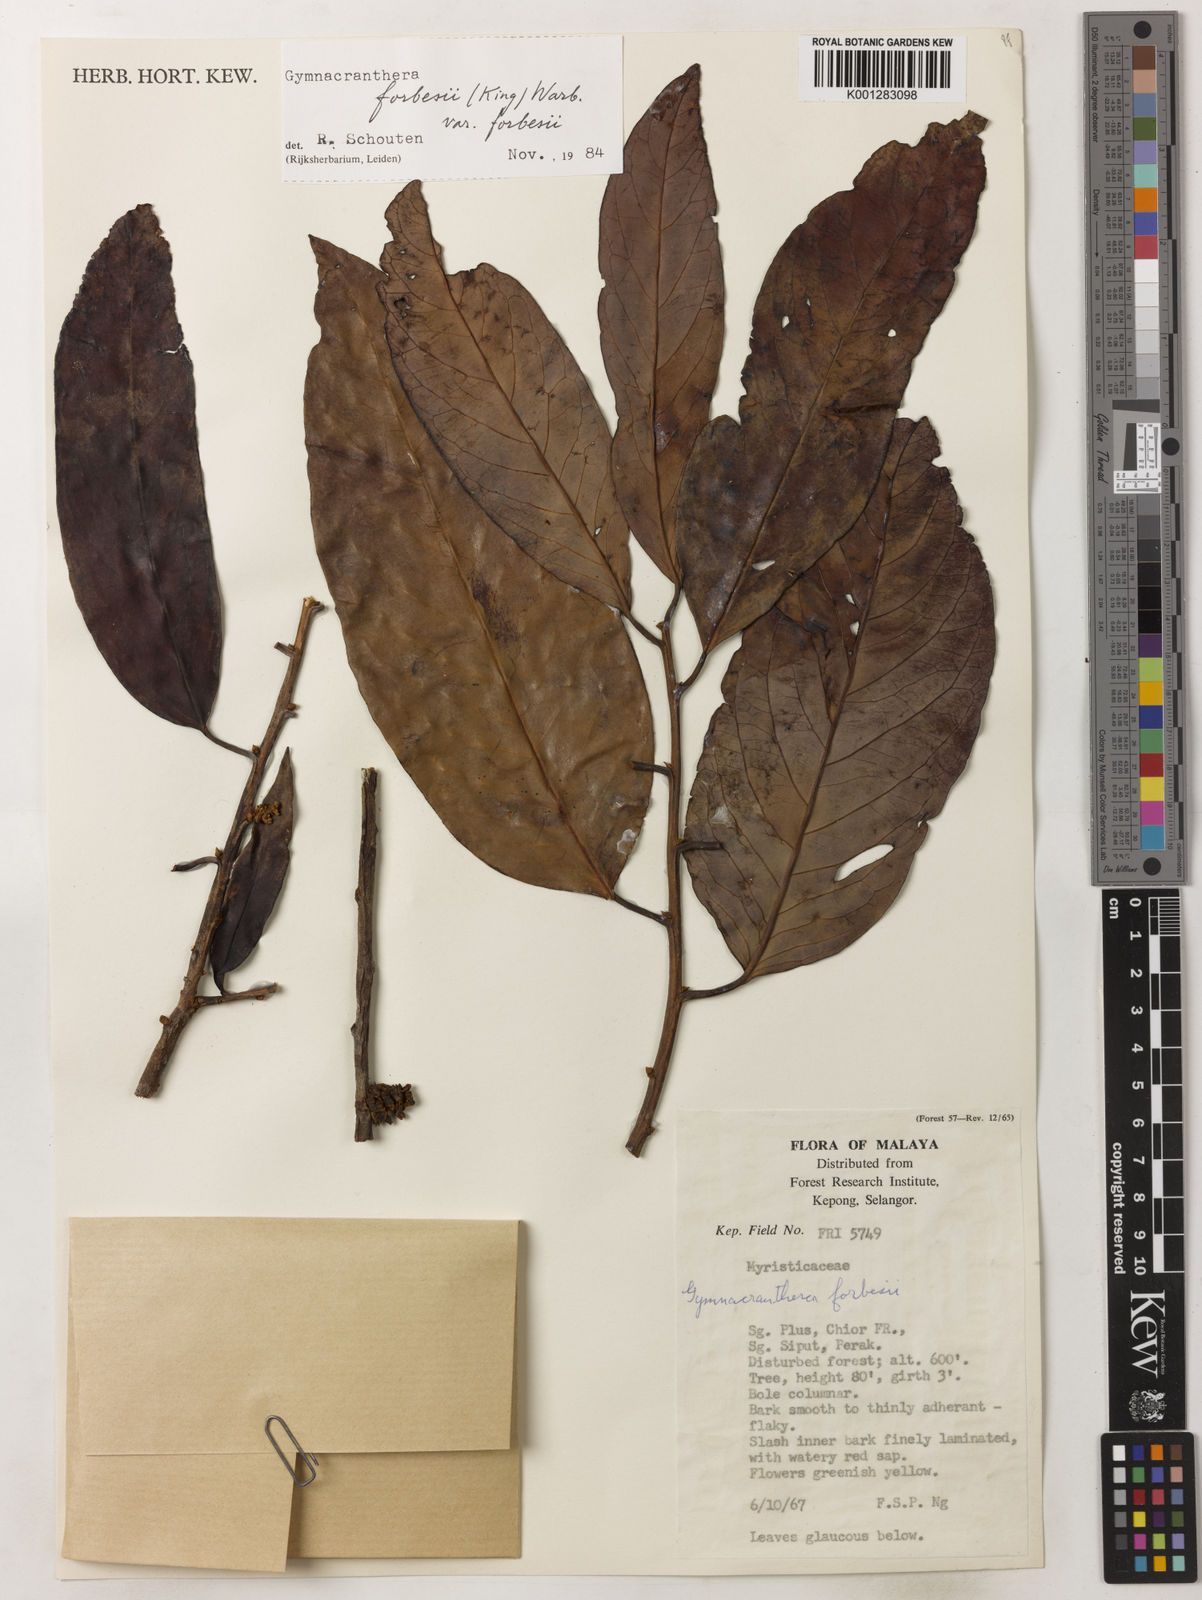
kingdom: Plantae
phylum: Tracheophyta
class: Magnoliopsida
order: Magnoliales
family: Myristicaceae
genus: Gymnacranthera
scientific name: Gymnacranthera forbesii
